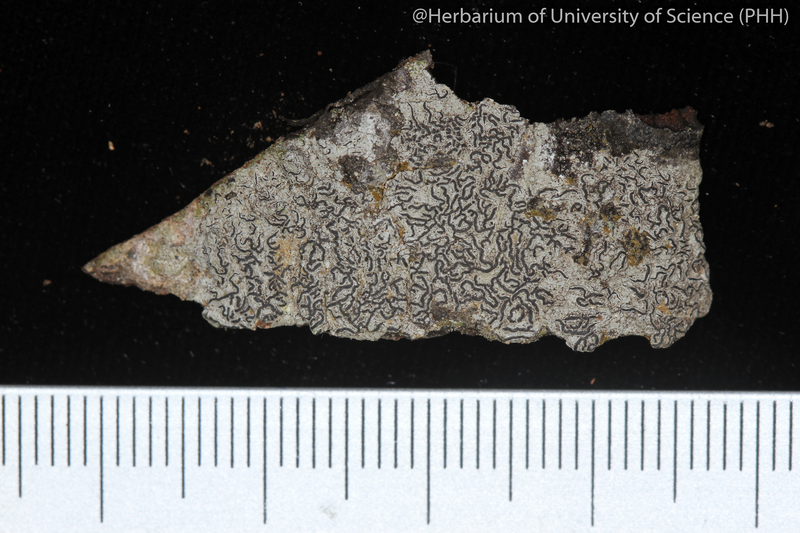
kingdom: Fungi
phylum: Ascomycota
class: Lecanoromycetes
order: Ostropales
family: Graphidaceae
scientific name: Graphidaceae
